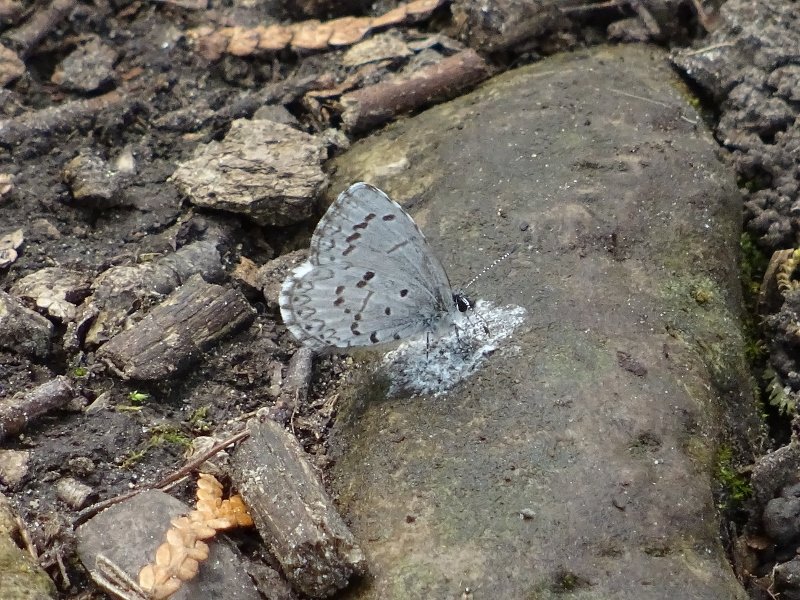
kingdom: Animalia
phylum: Arthropoda
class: Insecta
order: Lepidoptera
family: Lycaenidae
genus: Celastrina
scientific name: Celastrina
